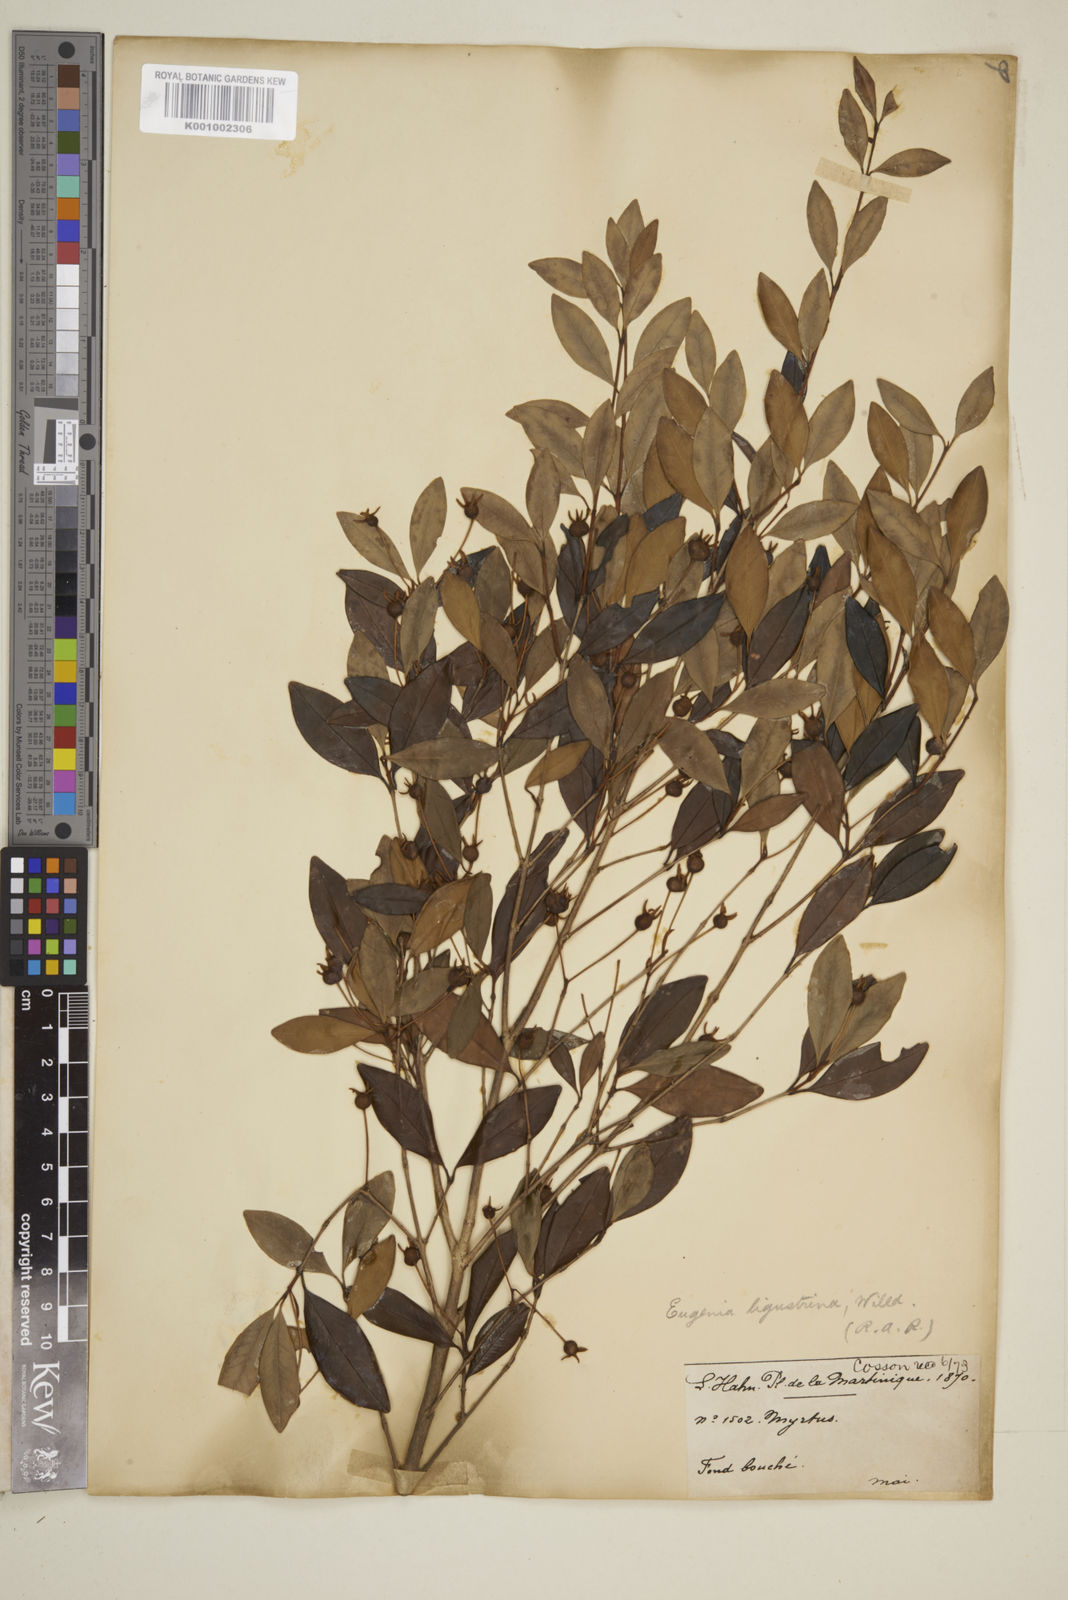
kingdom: Plantae
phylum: Tracheophyta
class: Magnoliopsida
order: Myrtales
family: Myrtaceae
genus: Eugenia
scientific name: Eugenia ligustrina
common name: Privet stopper
